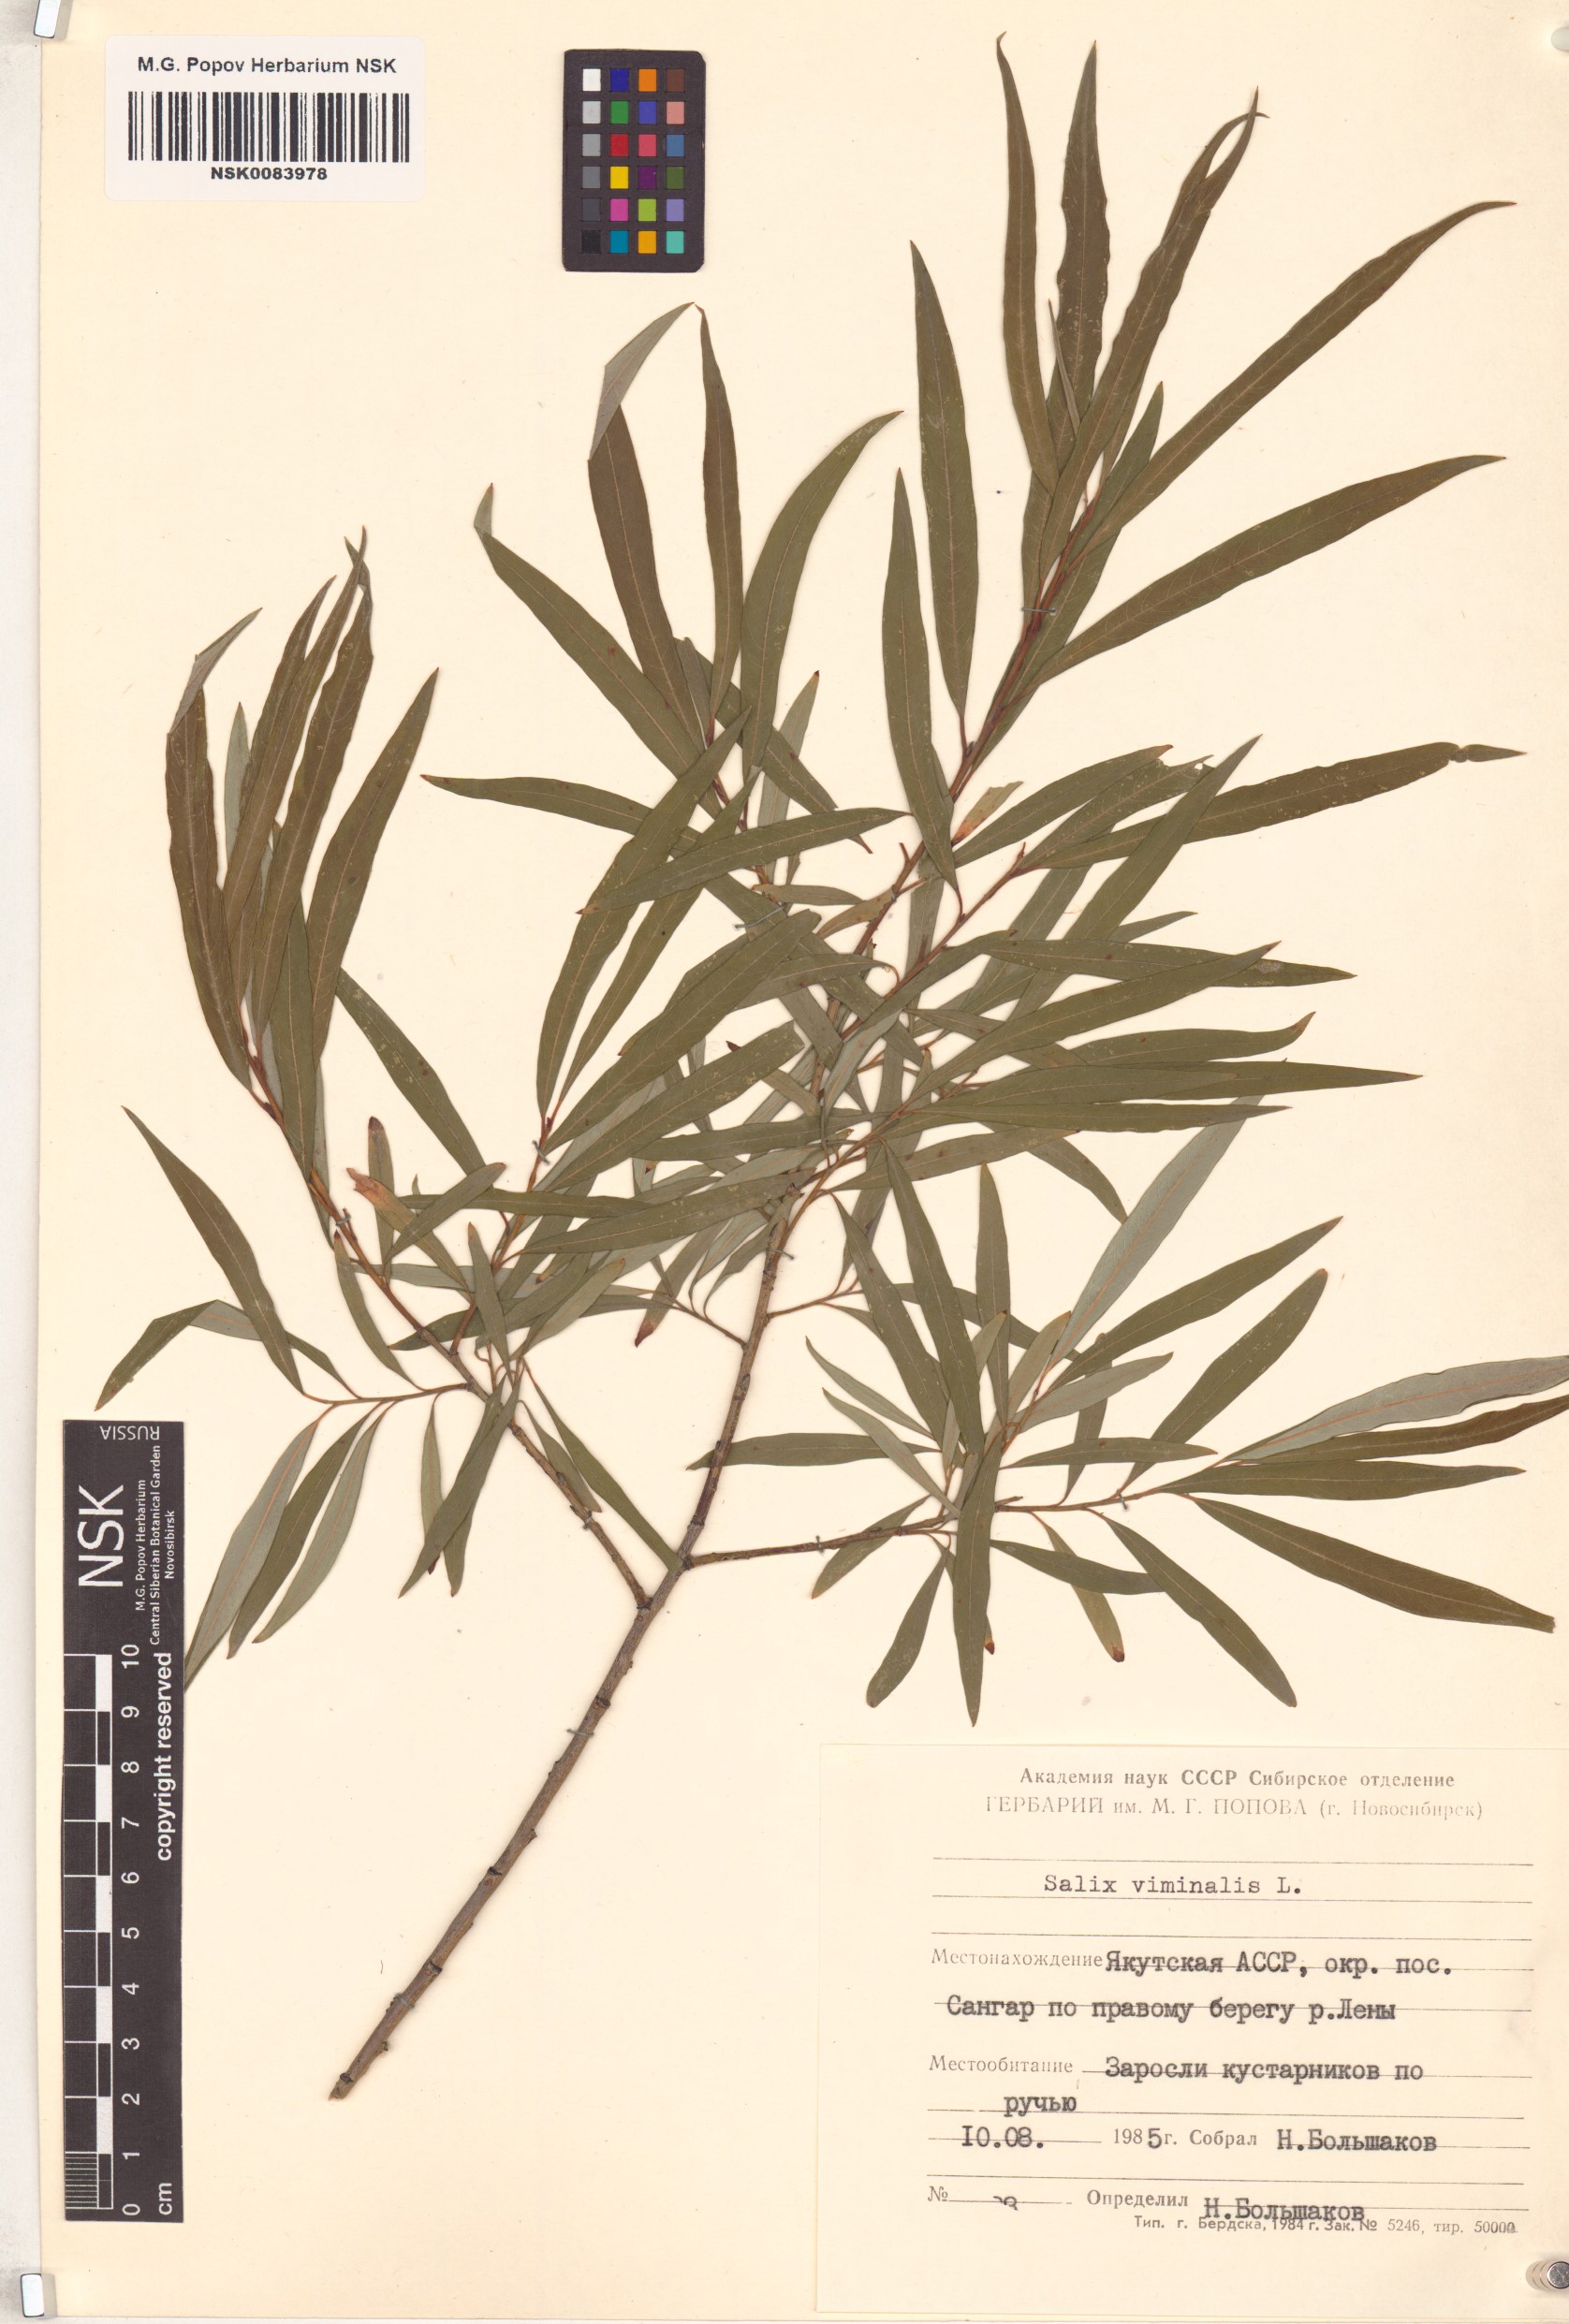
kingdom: Plantae
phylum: Tracheophyta
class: Magnoliopsida
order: Malpighiales
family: Salicaceae
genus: Salix
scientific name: Salix viminalis
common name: Osier
